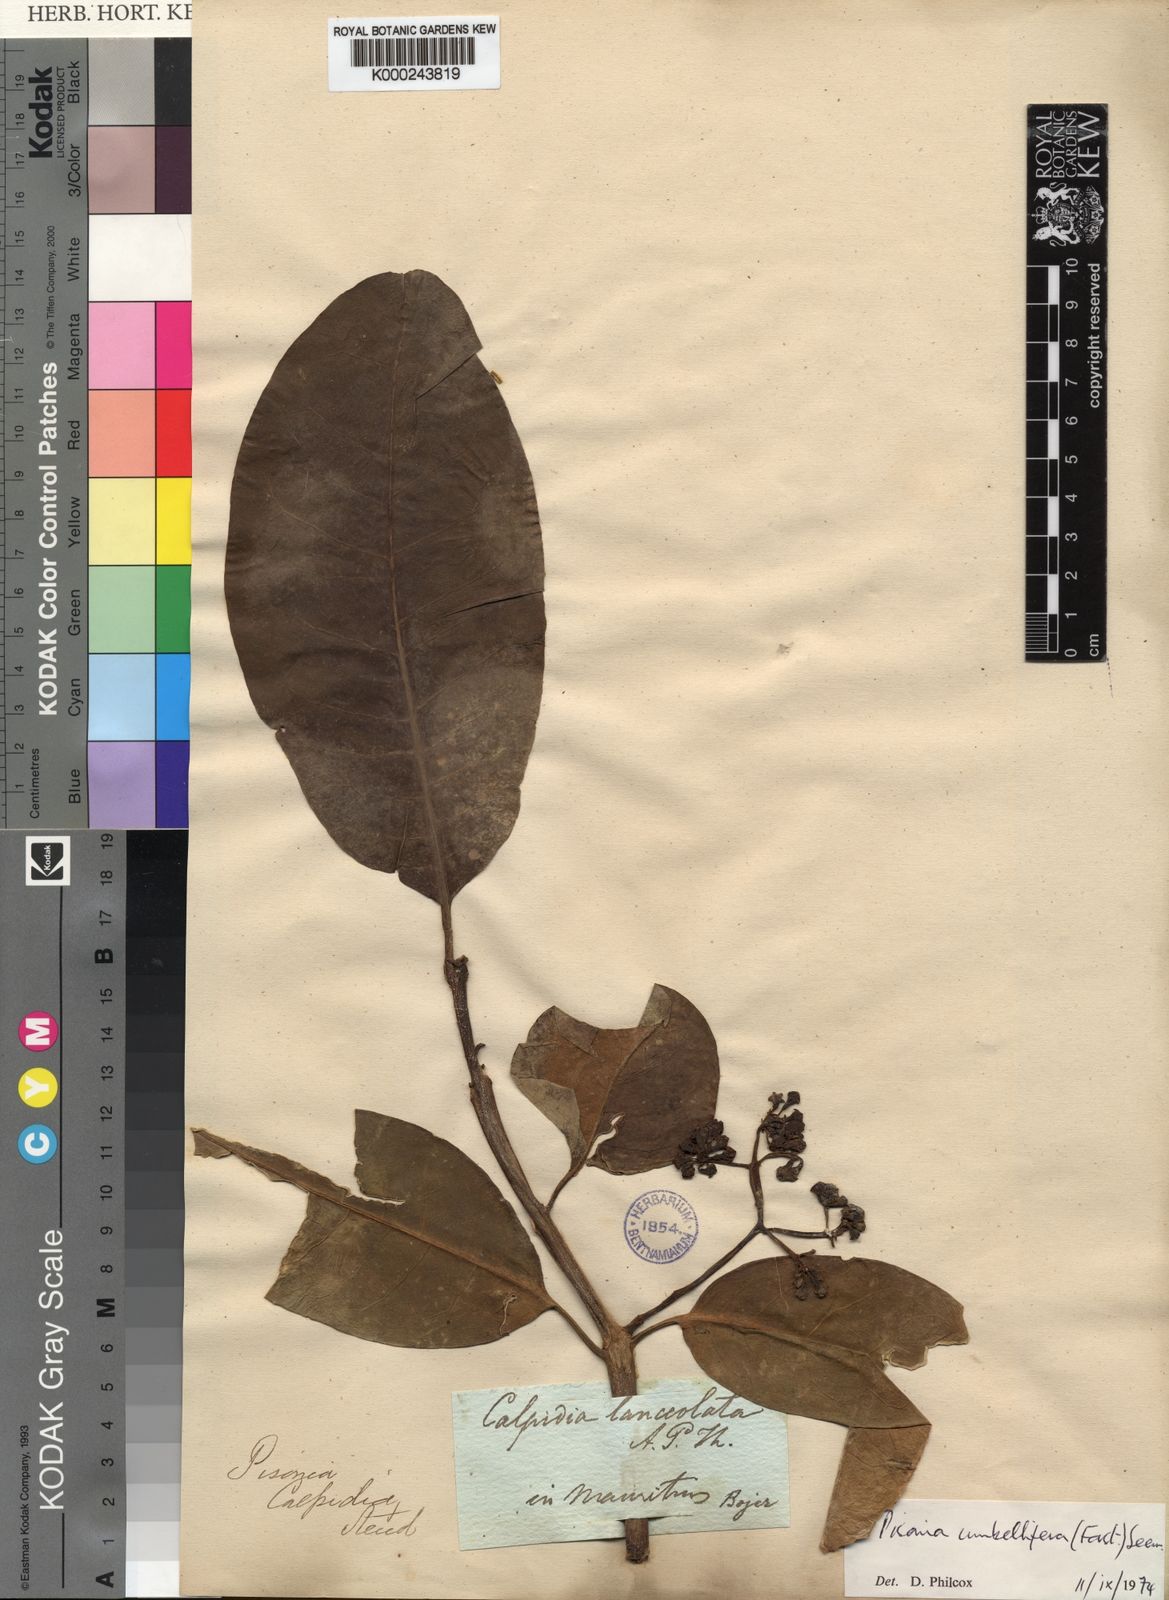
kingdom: Plantae
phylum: Tracheophyta
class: Magnoliopsida
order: Caryophyllales
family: Nyctaginaceae
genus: Ceodes
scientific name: Ceodes umbellifera
